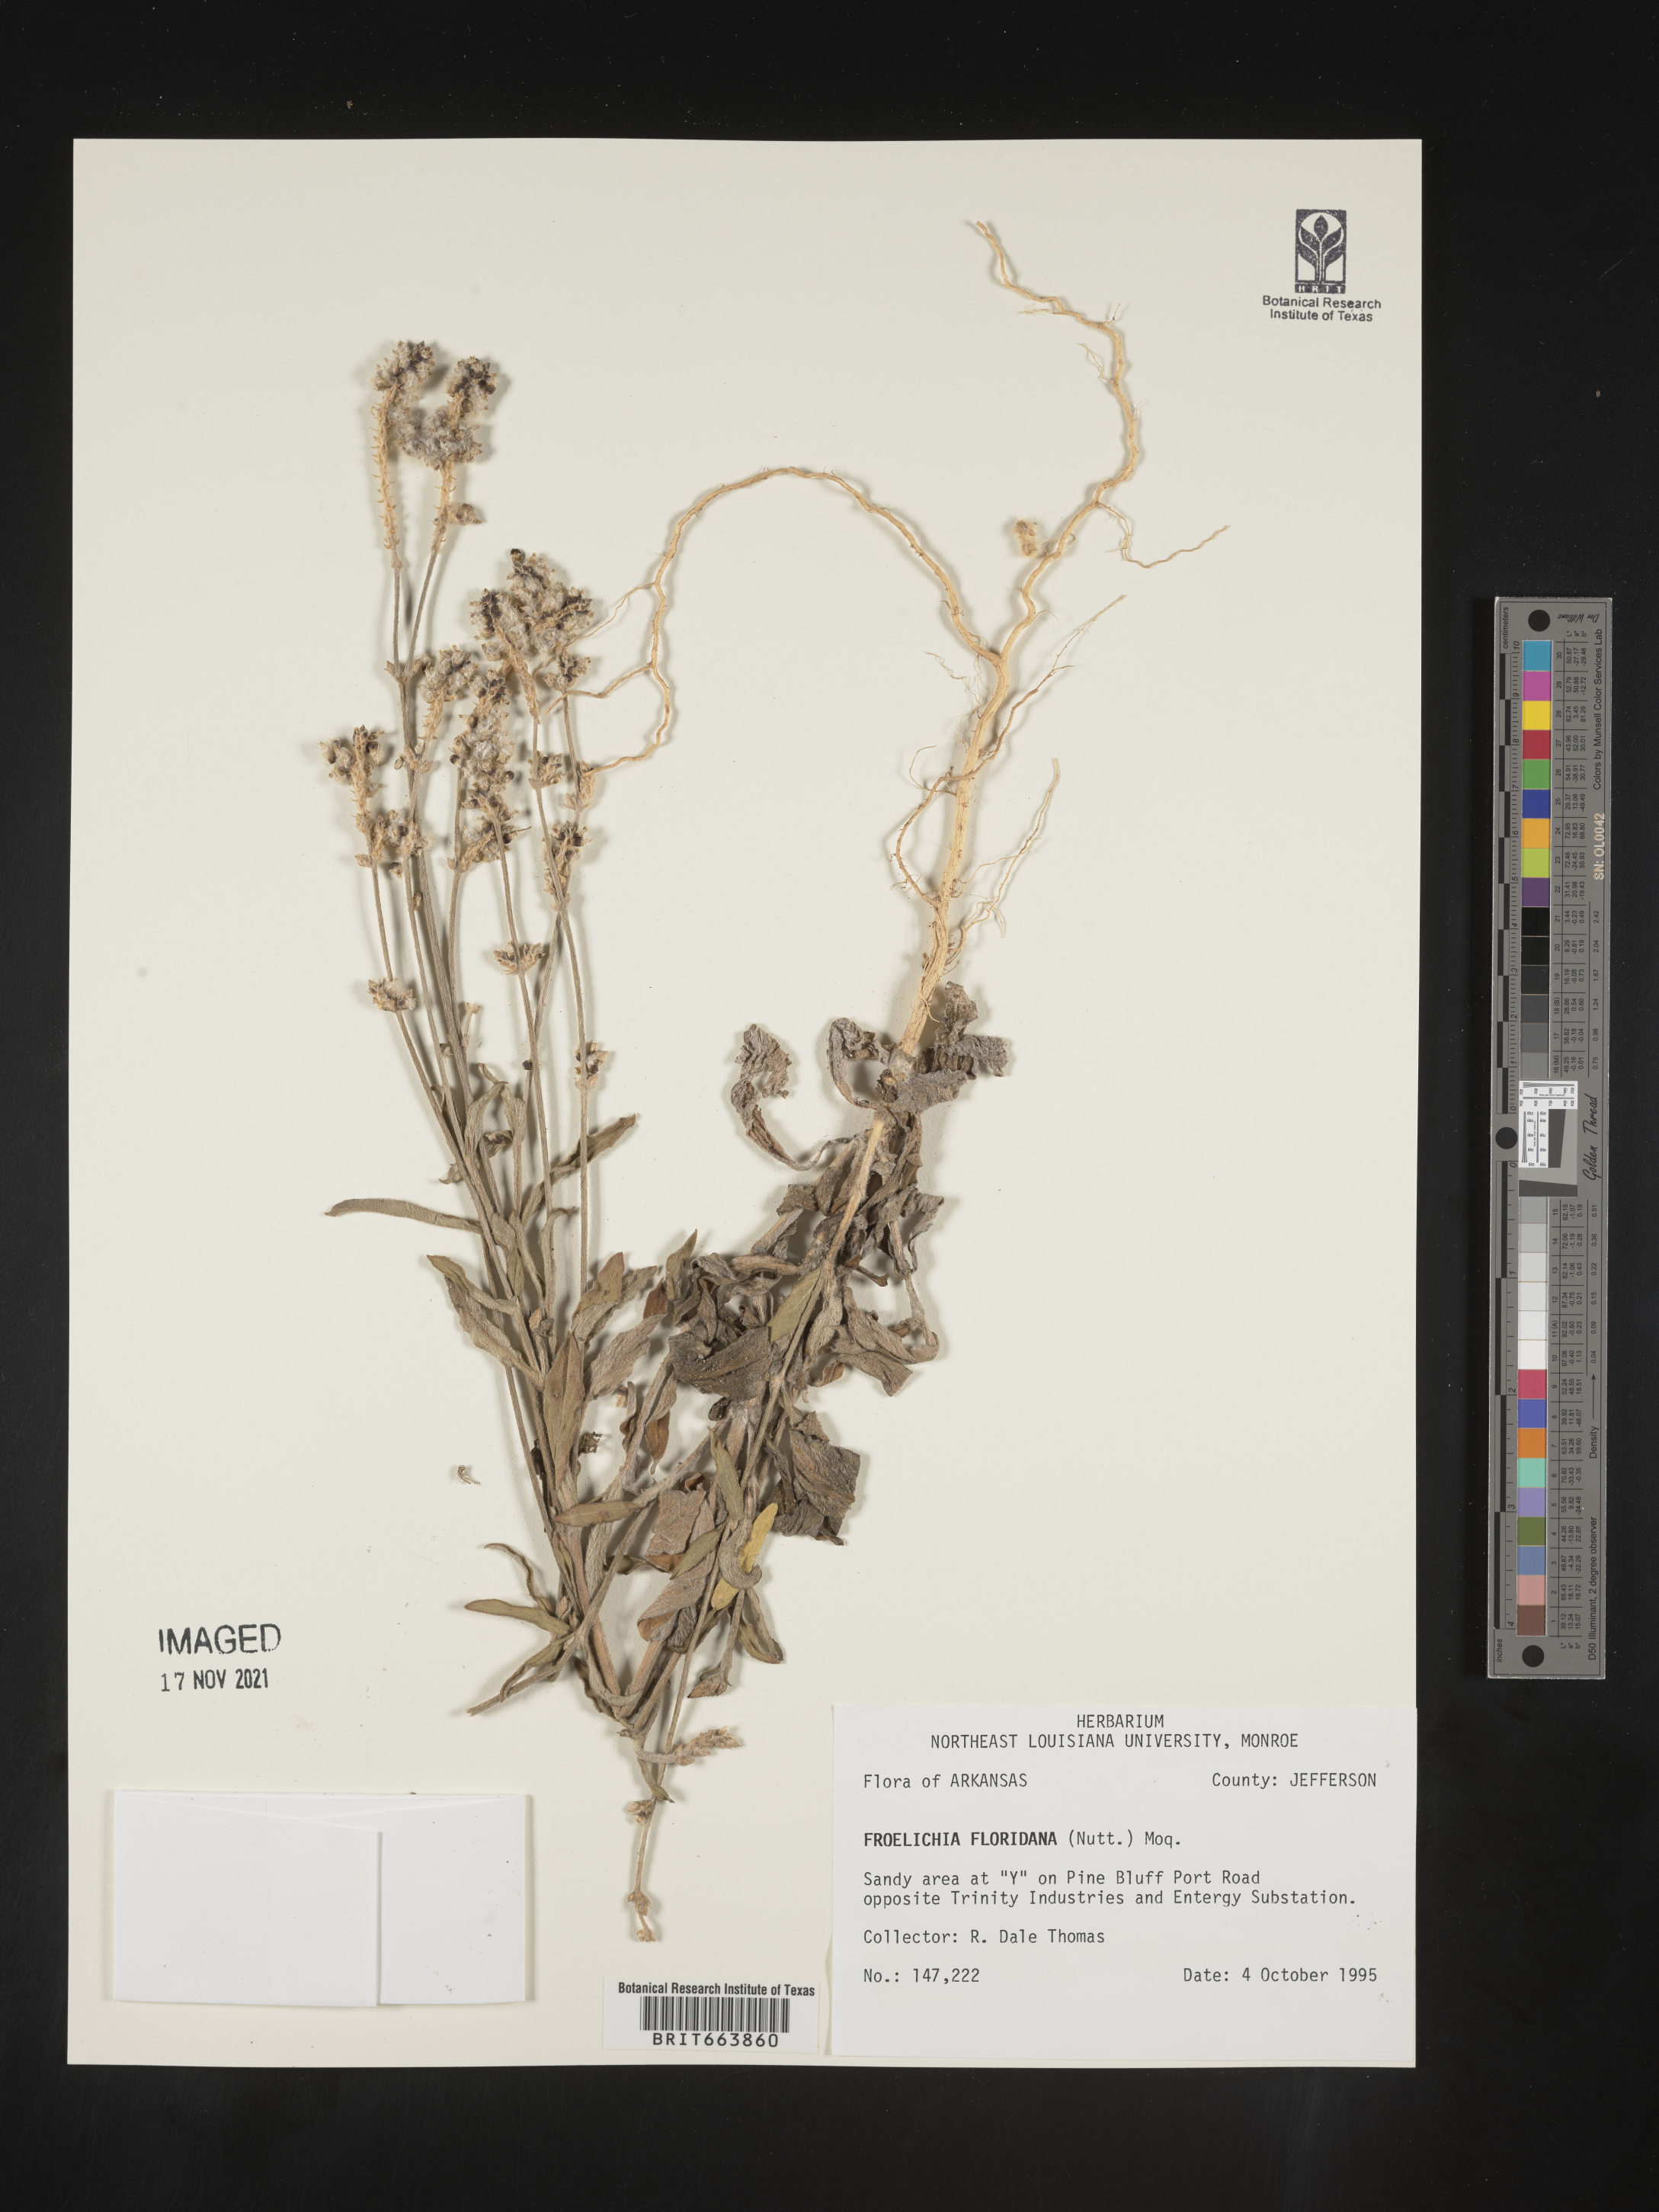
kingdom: Plantae
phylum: Tracheophyta
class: Magnoliopsida
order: Caryophyllales
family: Amaranthaceae
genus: Froelichia
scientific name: Froelichia floridana
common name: Florida snake-cotton
